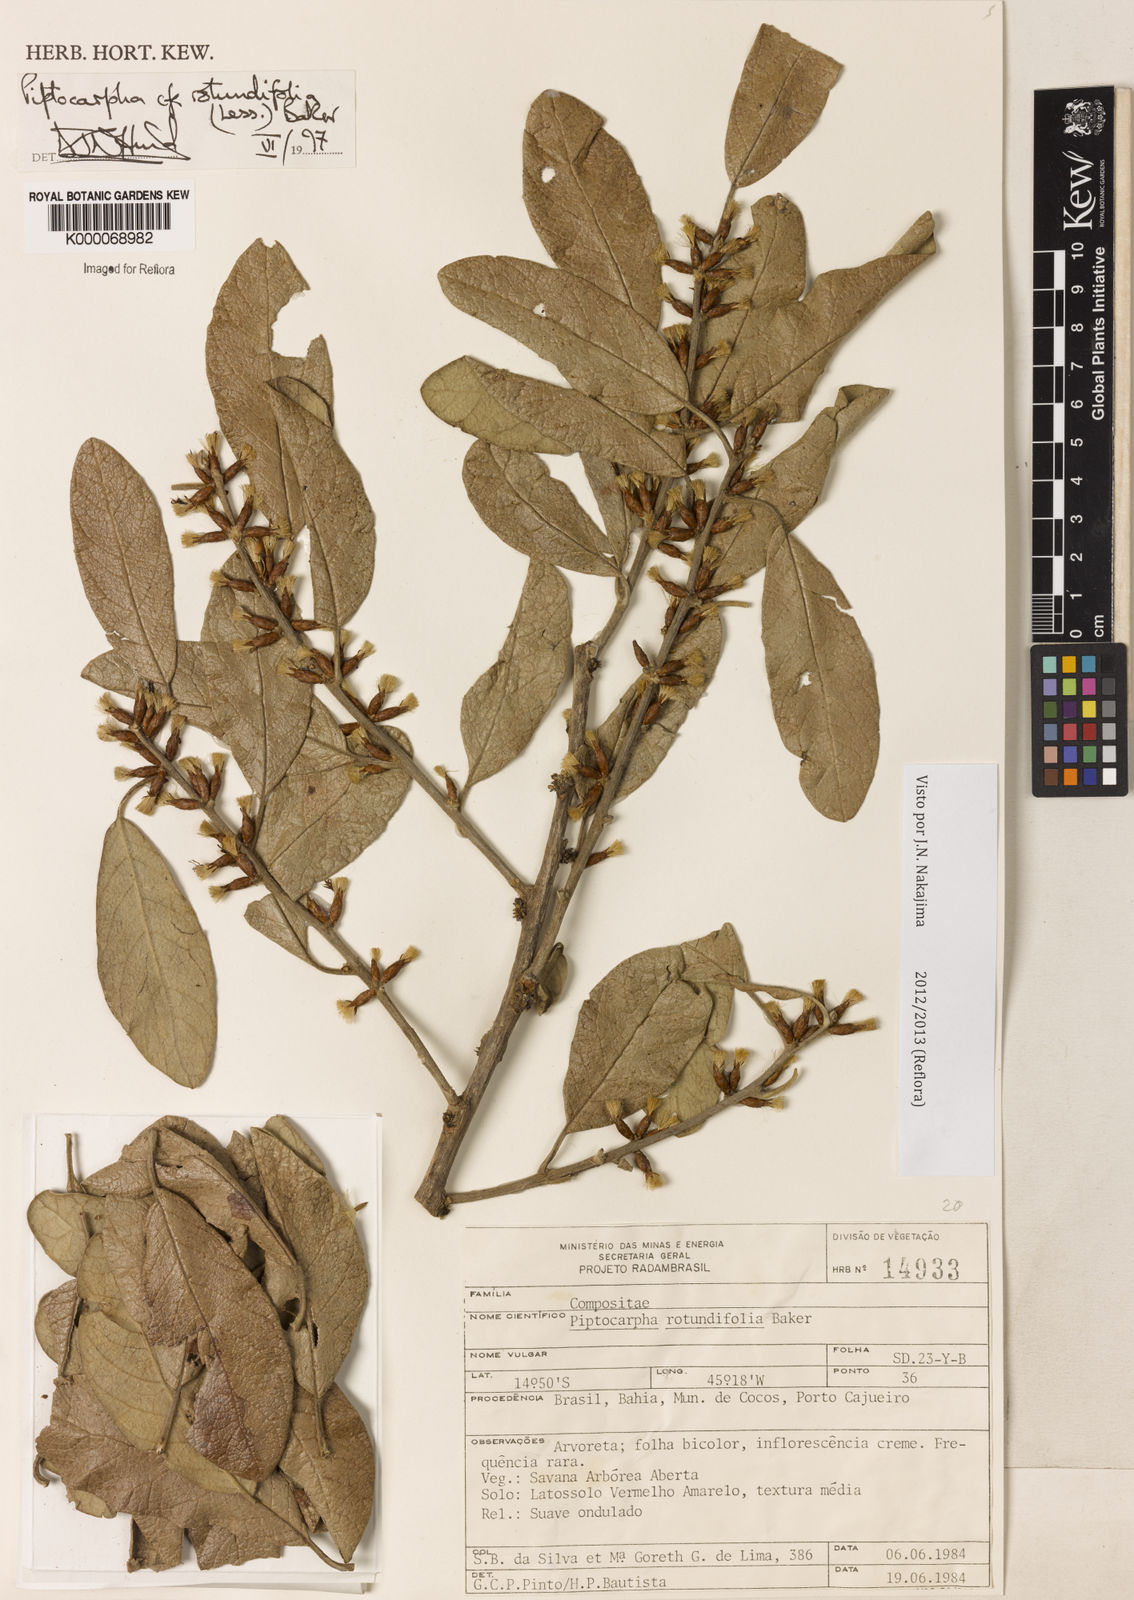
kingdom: Plantae
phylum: Tracheophyta
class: Magnoliopsida
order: Asterales
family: Asteraceae
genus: Piptocarpha
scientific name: Piptocarpha rotundifolia
